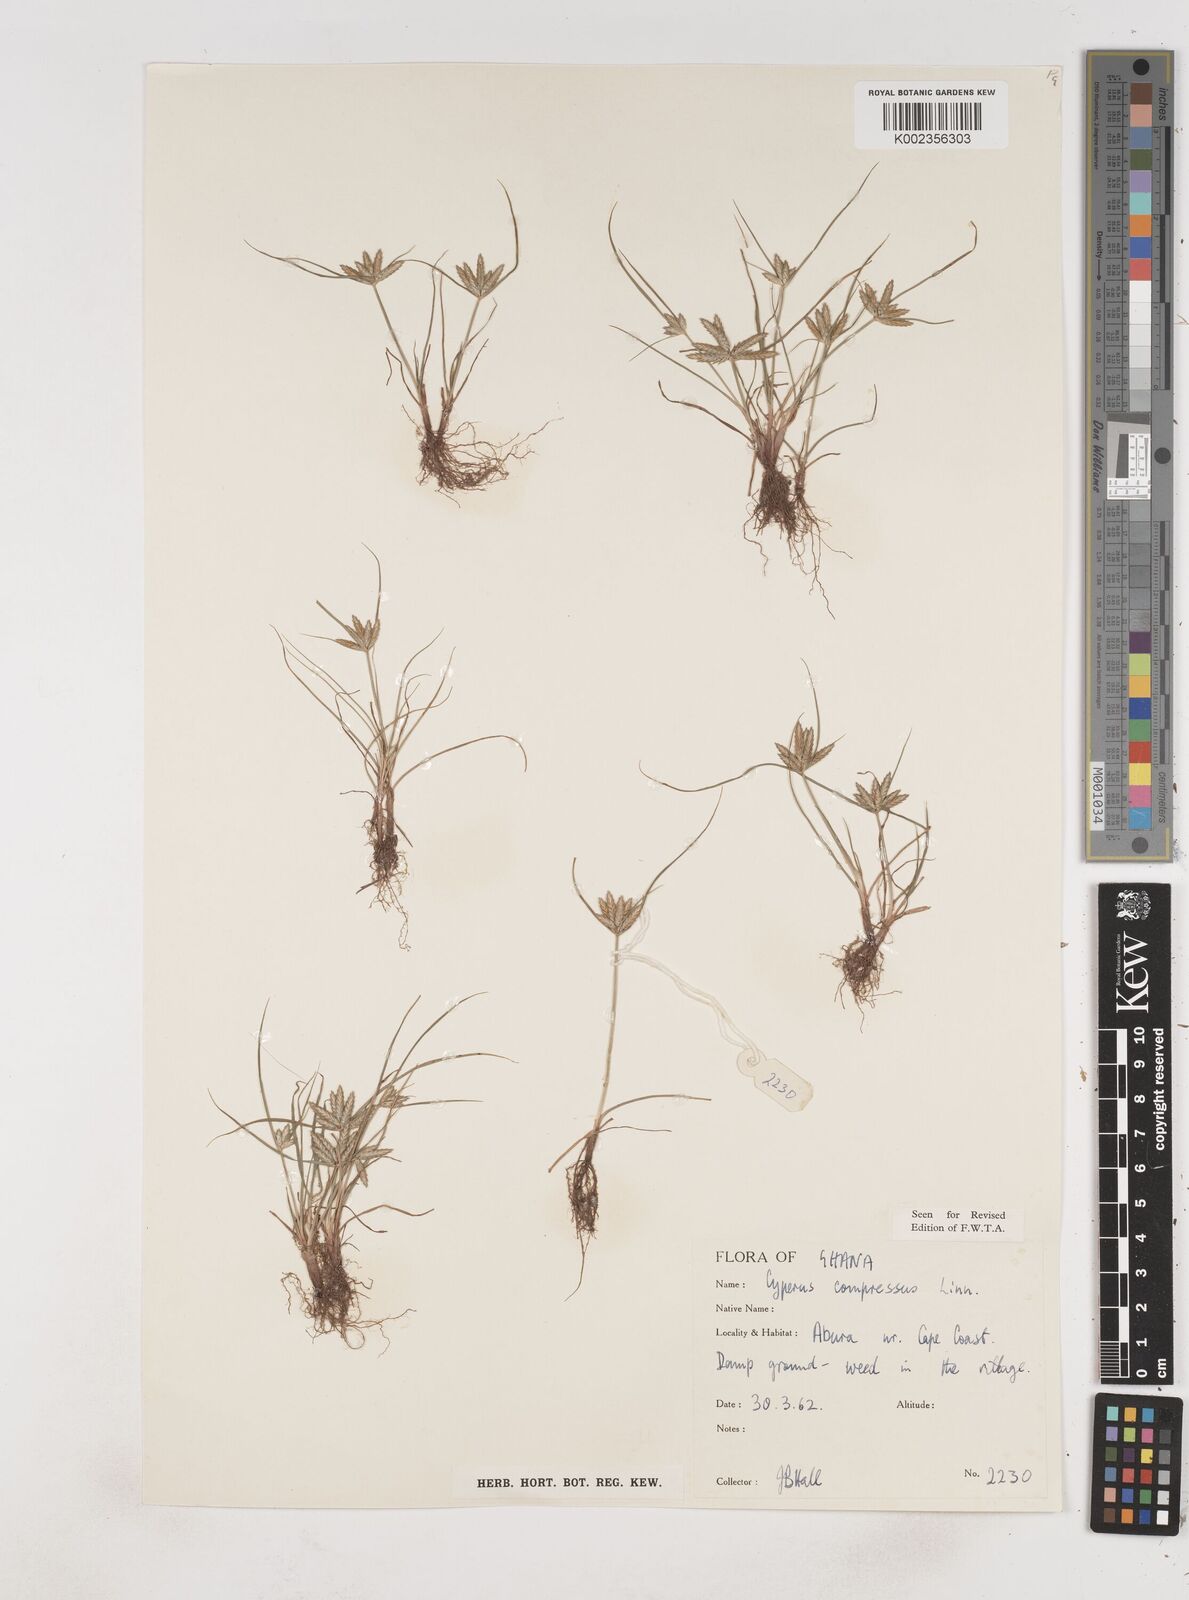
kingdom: Plantae
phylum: Tracheophyta
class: Liliopsida
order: Poales
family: Cyperaceae
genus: Cyperus
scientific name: Cyperus compressus
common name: Poorland flatsedge
